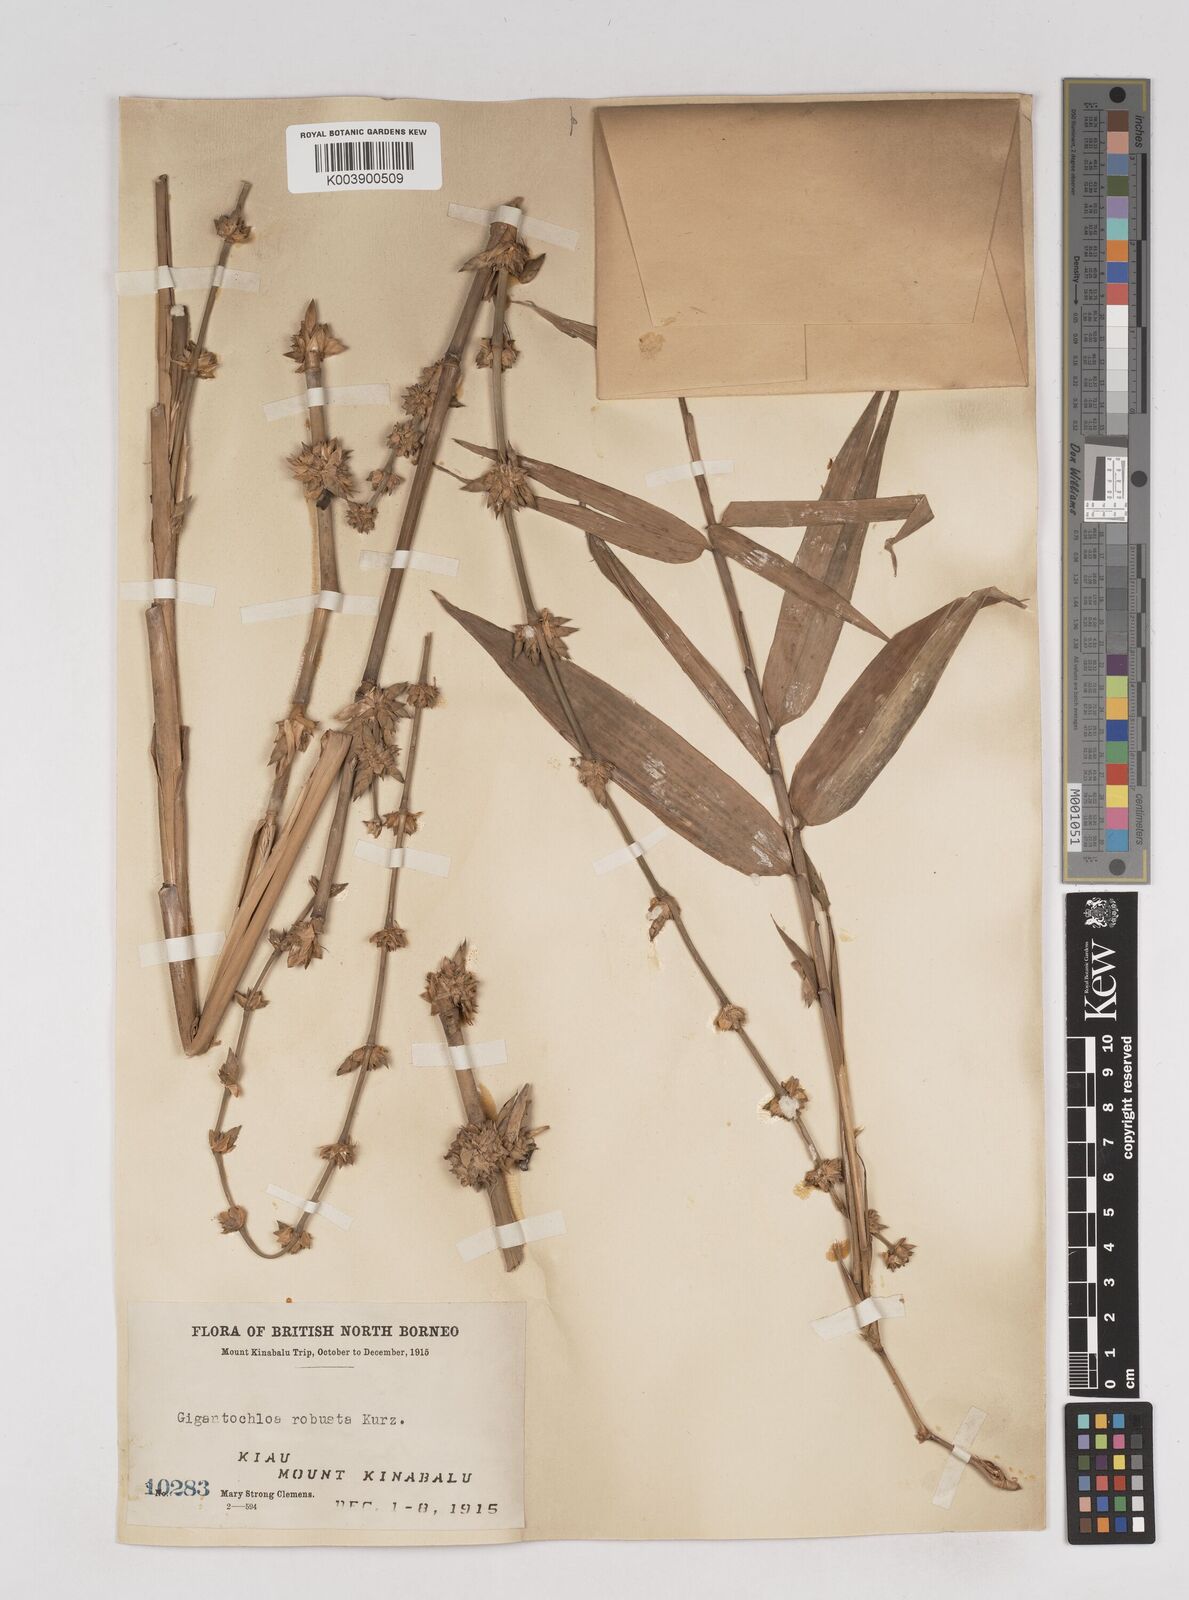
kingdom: Plantae
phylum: Tracheophyta
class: Liliopsida
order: Poales
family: Poaceae
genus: Gigantochloa
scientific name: Gigantochloa robusta
